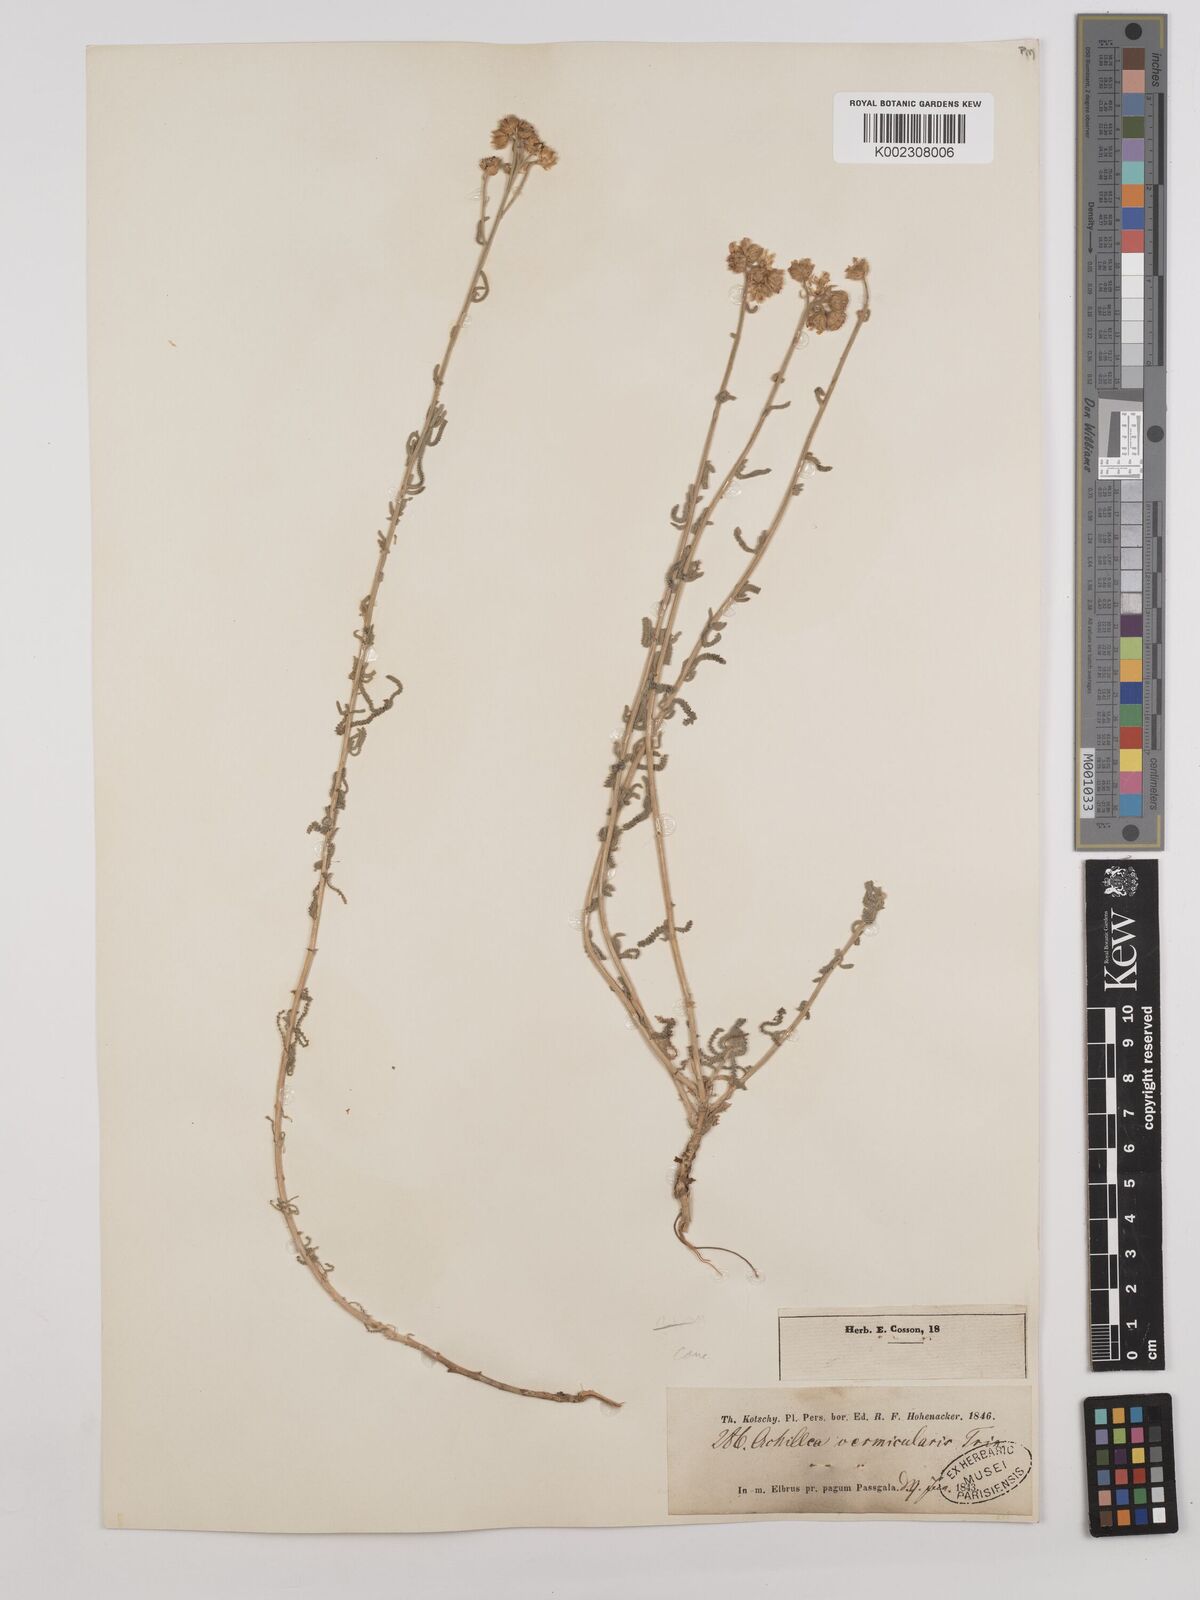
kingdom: Plantae
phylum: Tracheophyta
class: Magnoliopsida
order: Asterales
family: Asteraceae
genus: Achillea
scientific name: Achillea vermicularis
